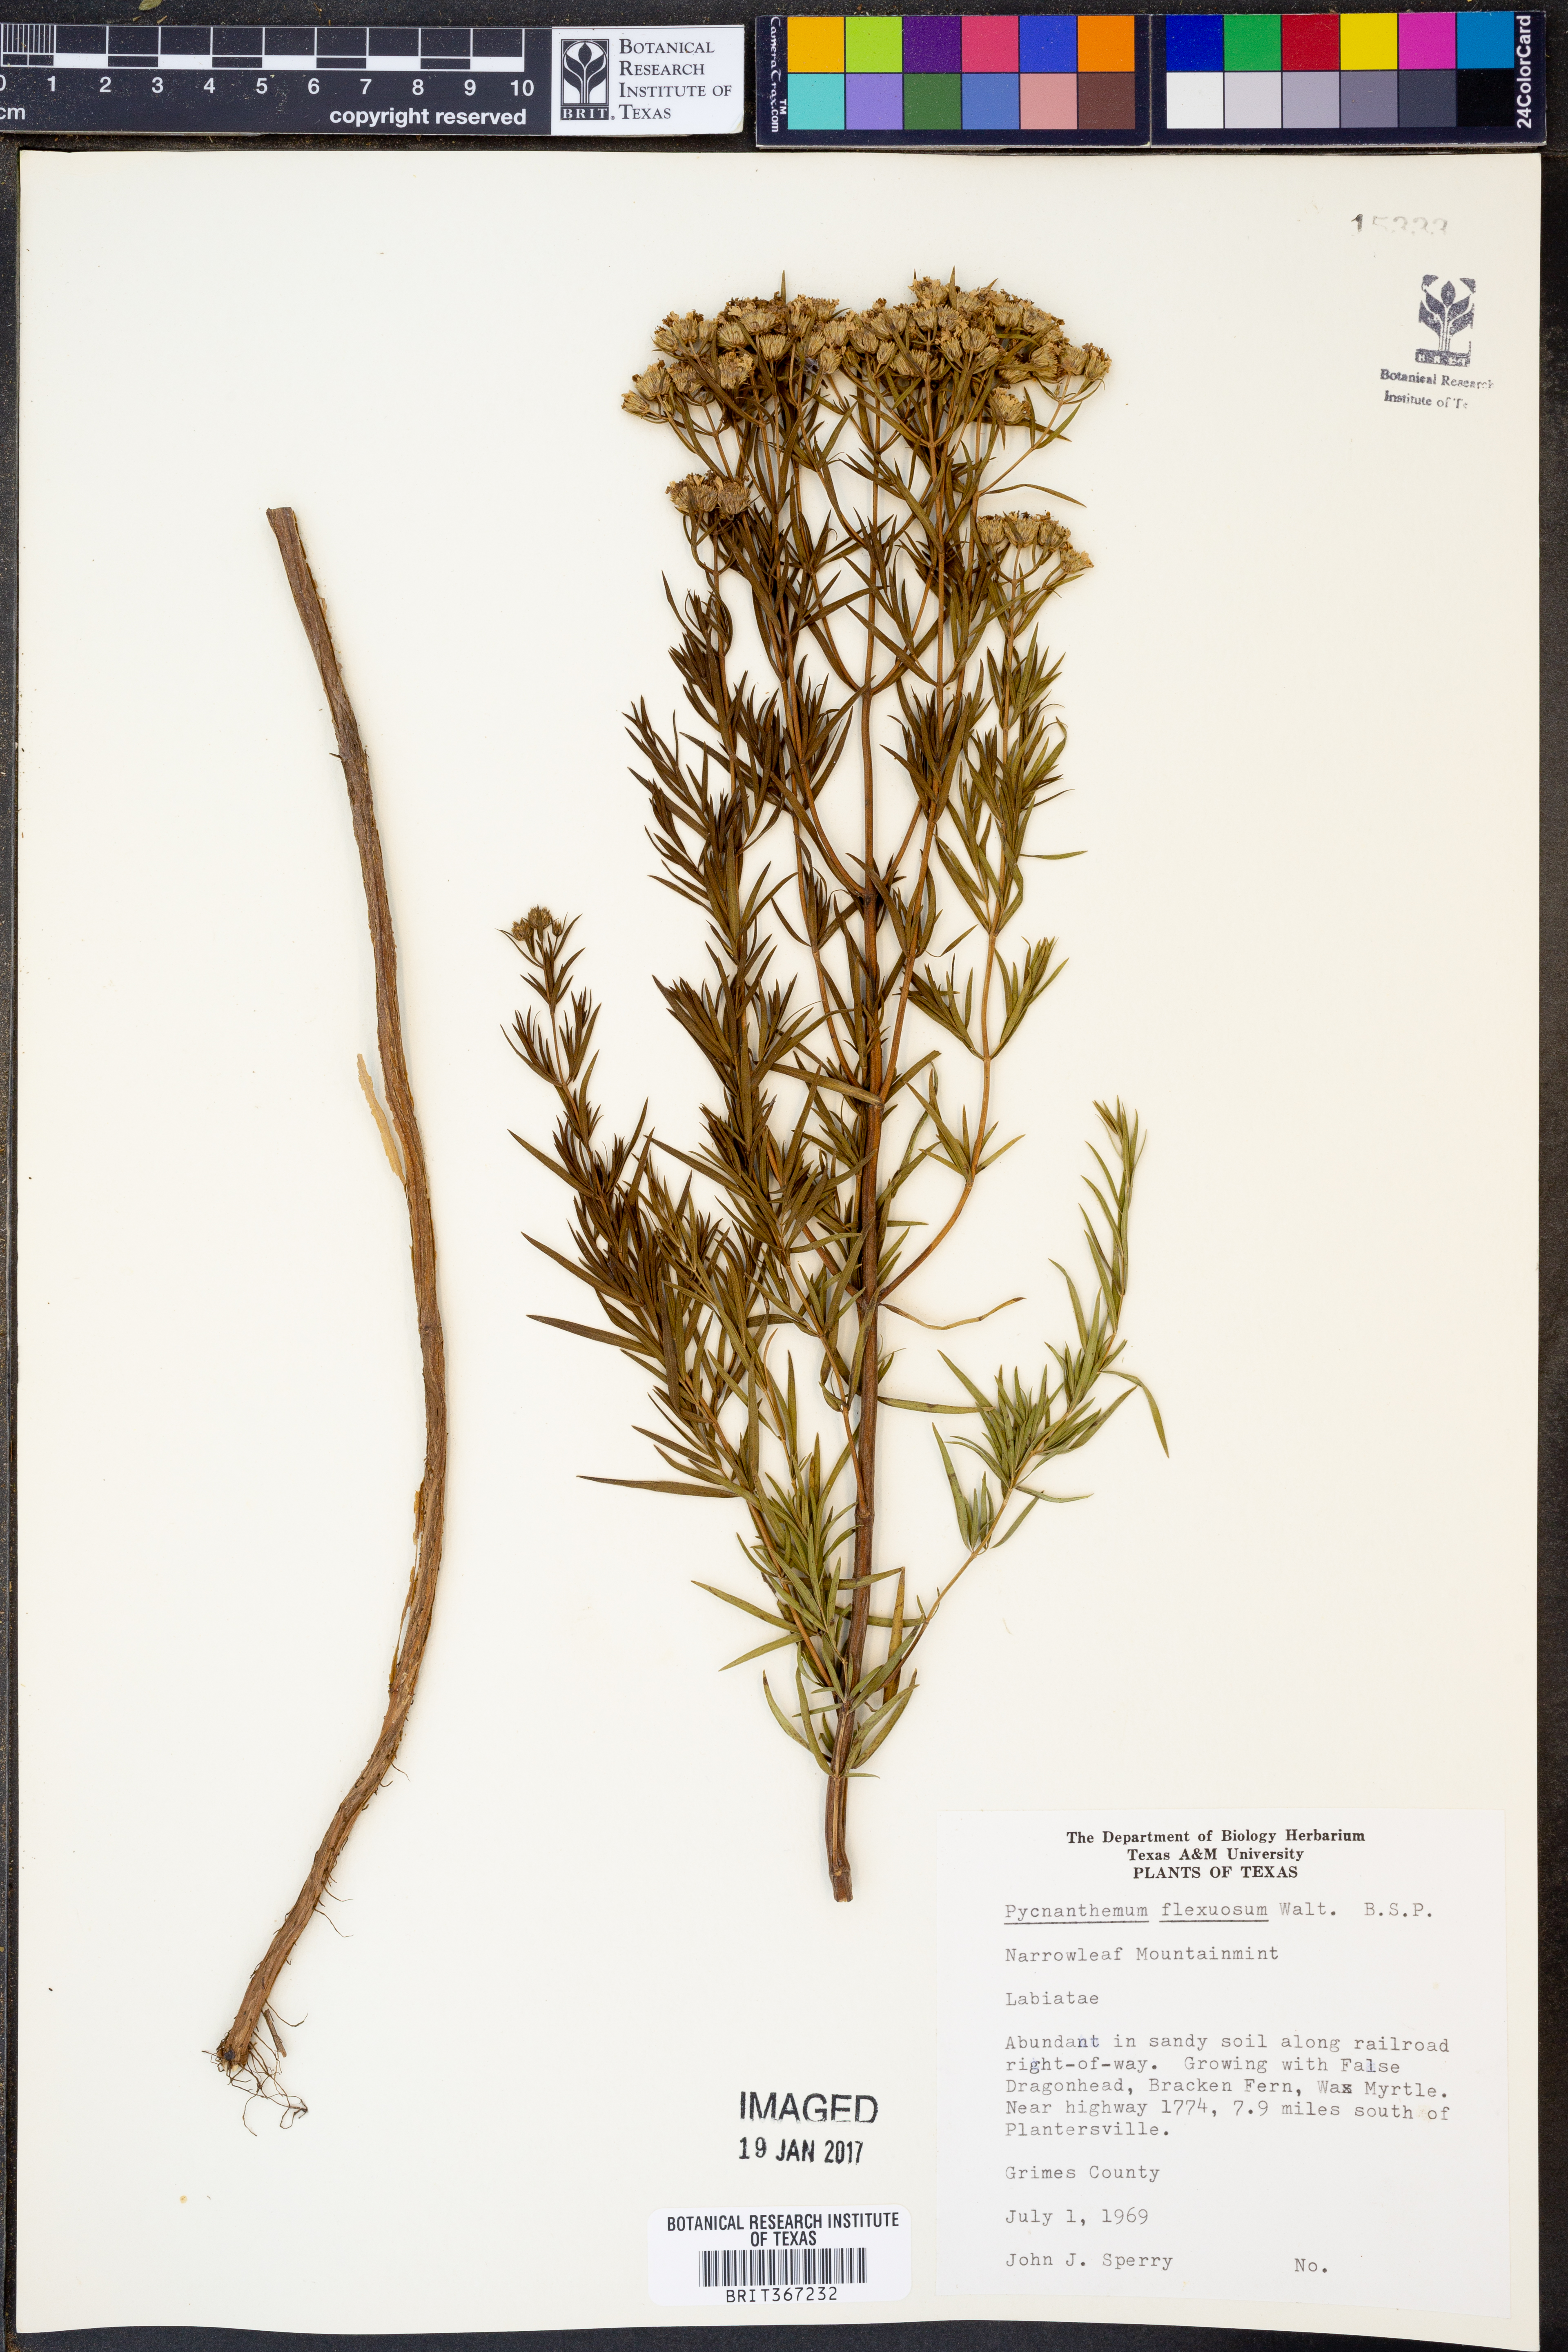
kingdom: Plantae
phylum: Tracheophyta
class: Magnoliopsida
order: Lamiales
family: Lamiaceae
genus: Pycnanthemum
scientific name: Pycnanthemum flexuosum
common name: Appalachian mountain-mint
